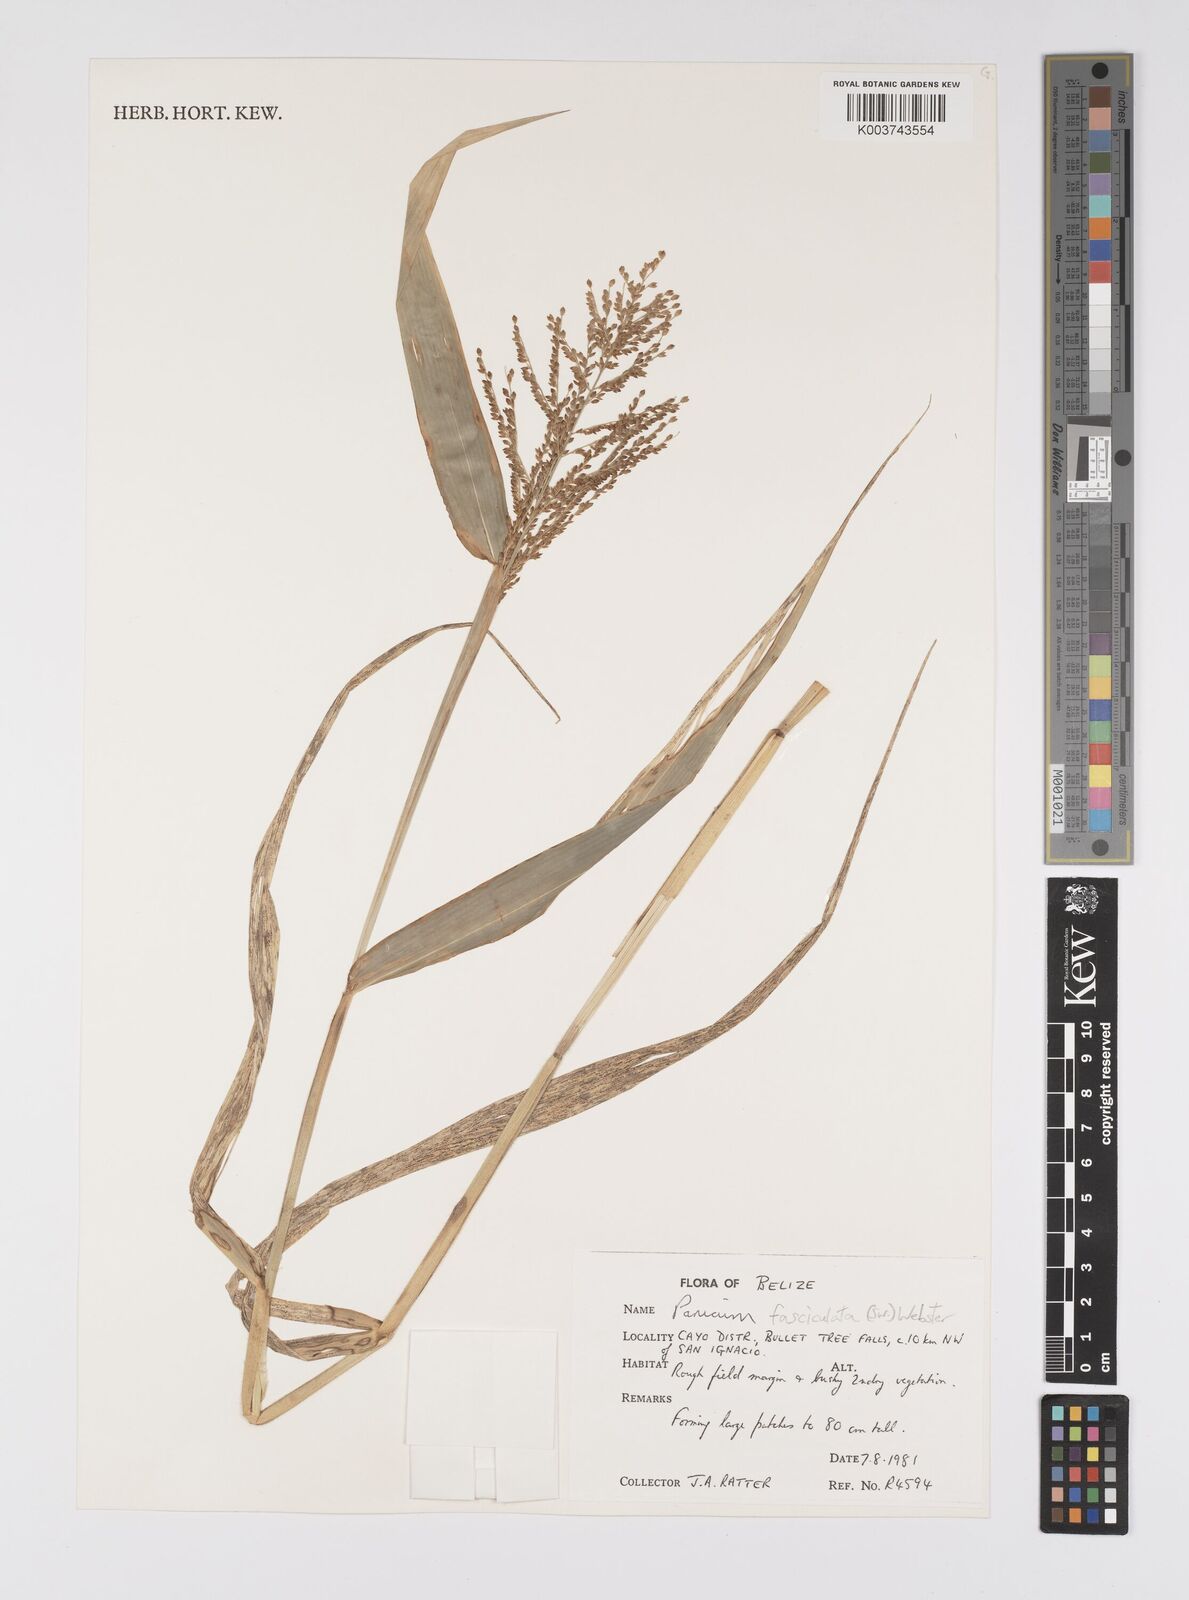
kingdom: Plantae
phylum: Tracheophyta
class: Liliopsida
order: Poales
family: Poaceae
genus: Urochloa
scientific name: Urochloa fusca
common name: Browntop signal grass
